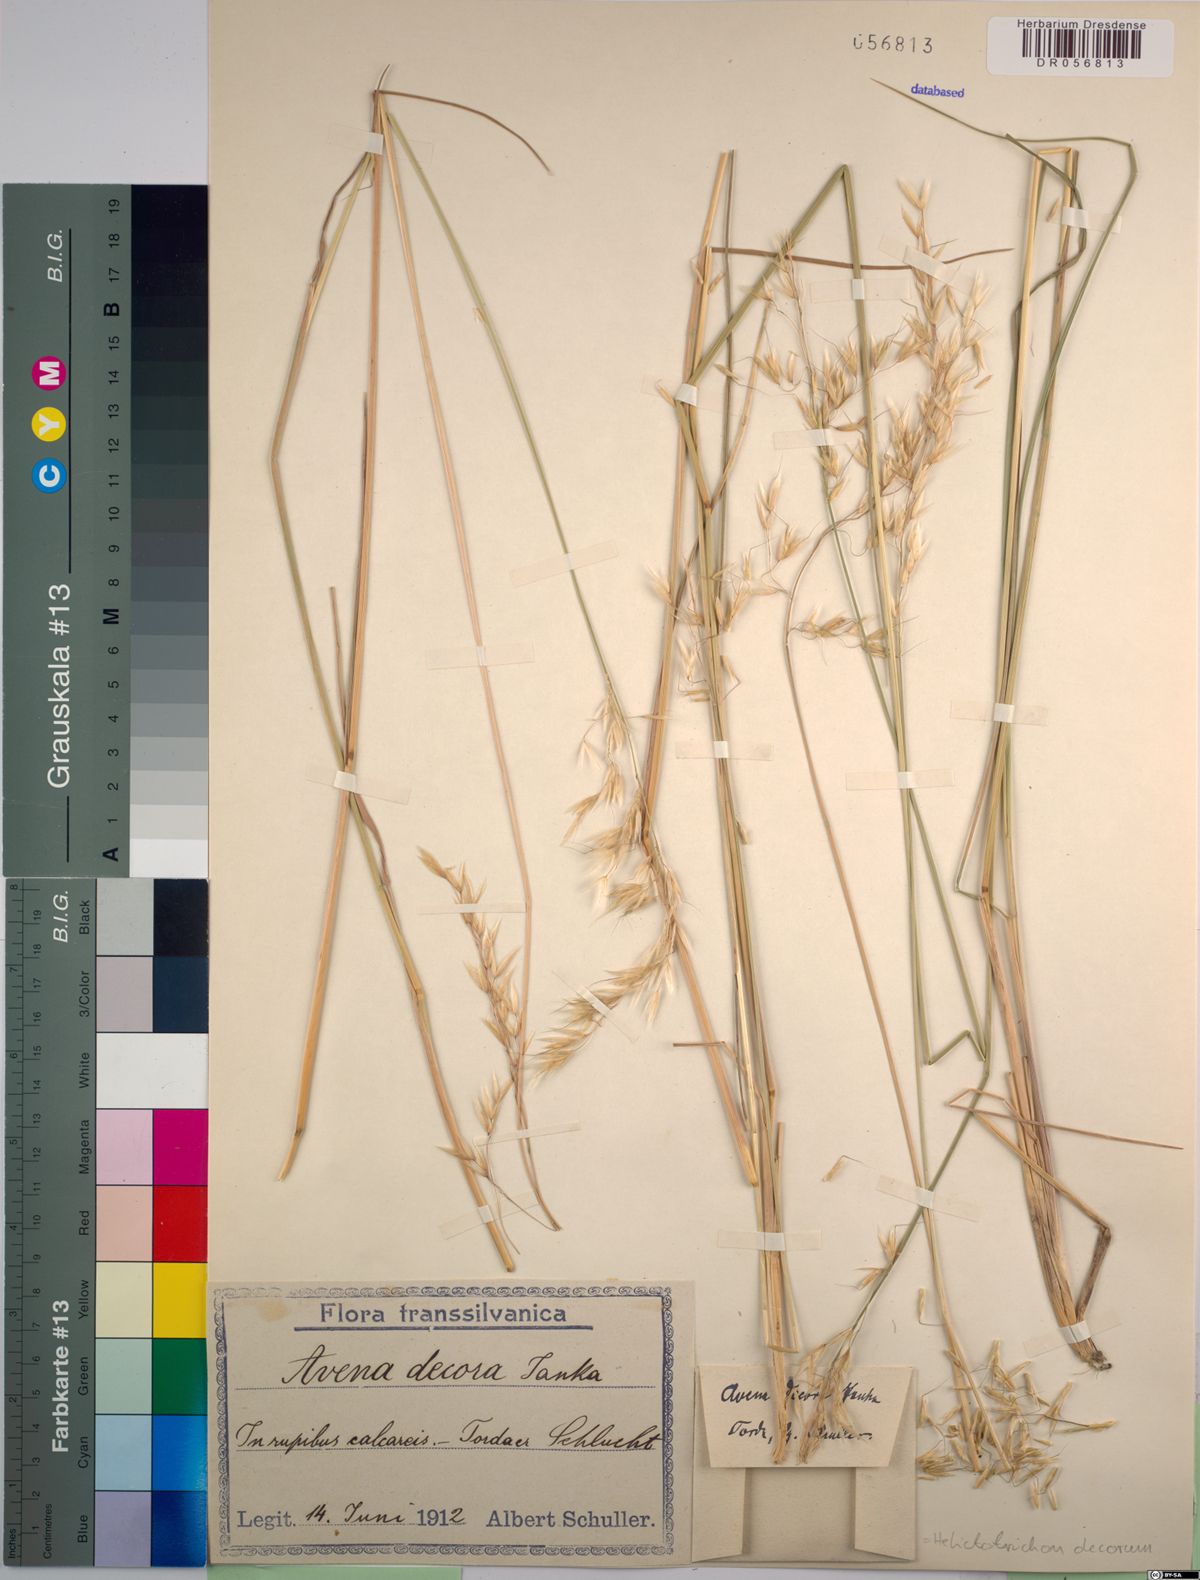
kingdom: Plantae
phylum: Tracheophyta
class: Liliopsida
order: Poales
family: Poaceae
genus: Helictotrichon
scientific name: Helictotrichon decorum
